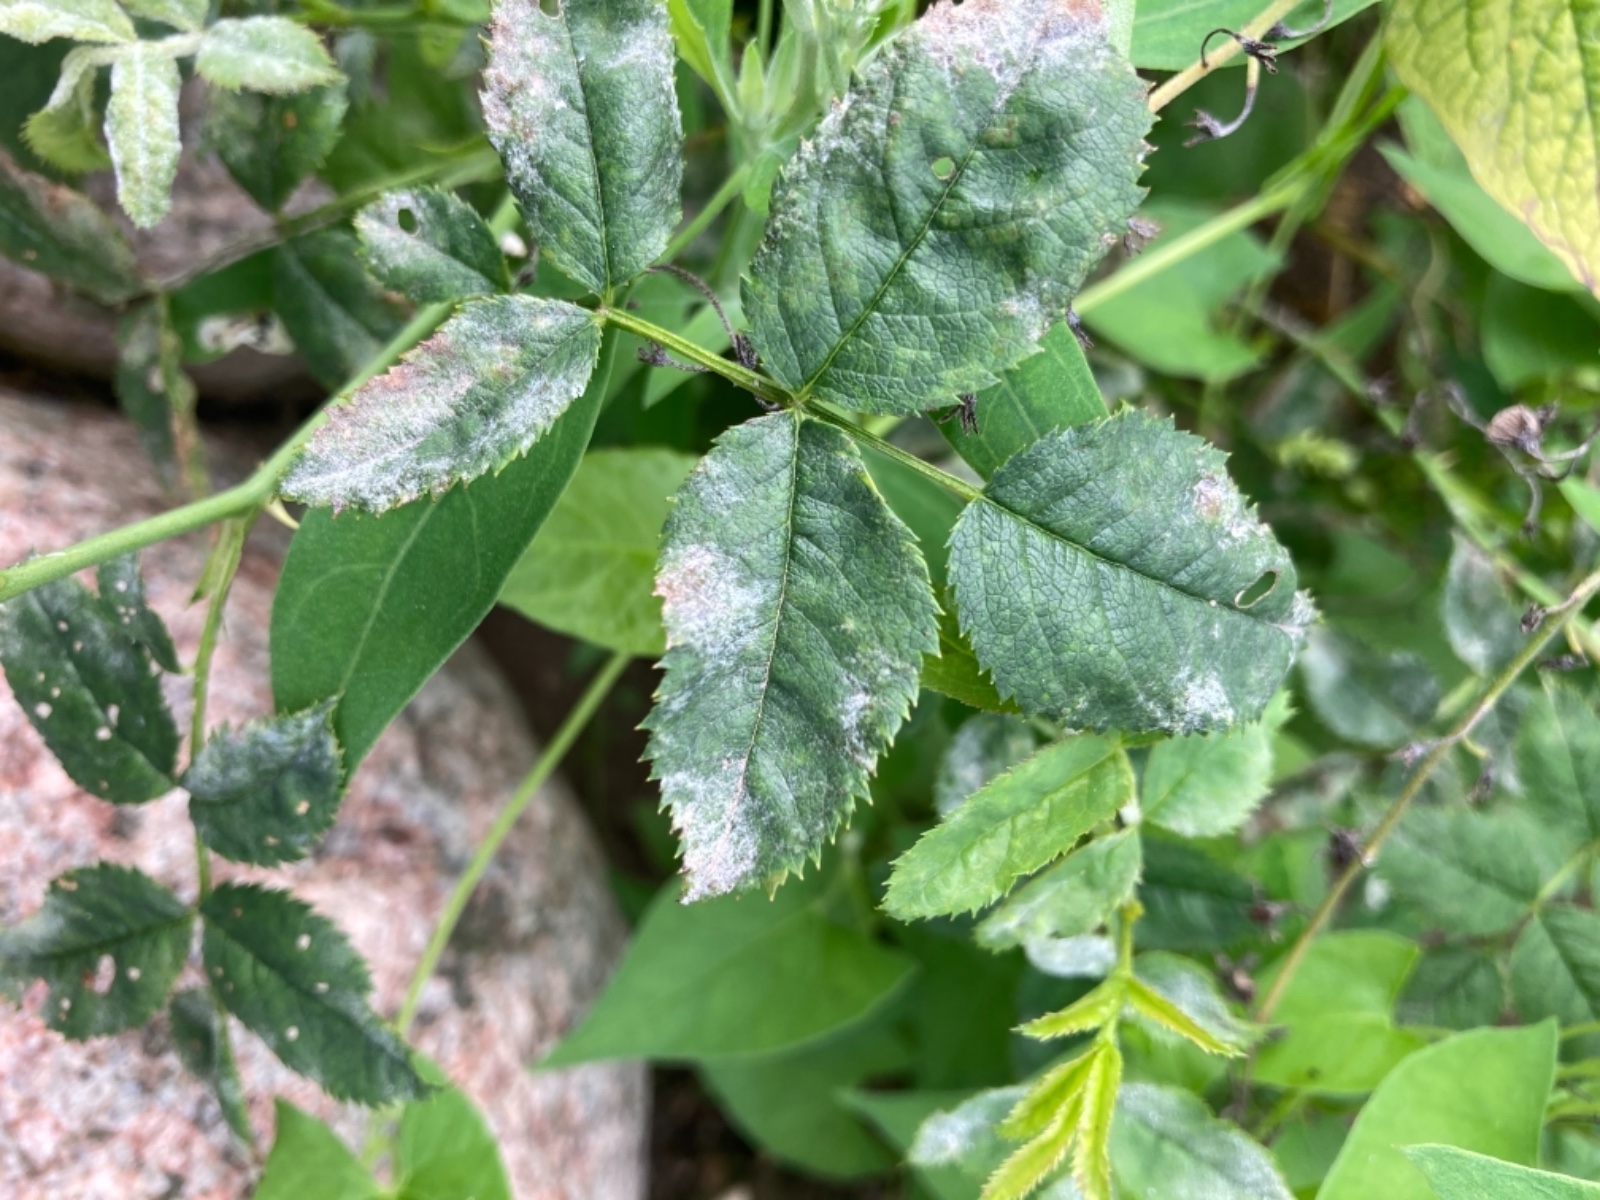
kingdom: Fungi
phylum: Ascomycota
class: Leotiomycetes
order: Helotiales
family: Erysiphaceae
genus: Podosphaera
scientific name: Podosphaera pannosa
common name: Rose mildew
